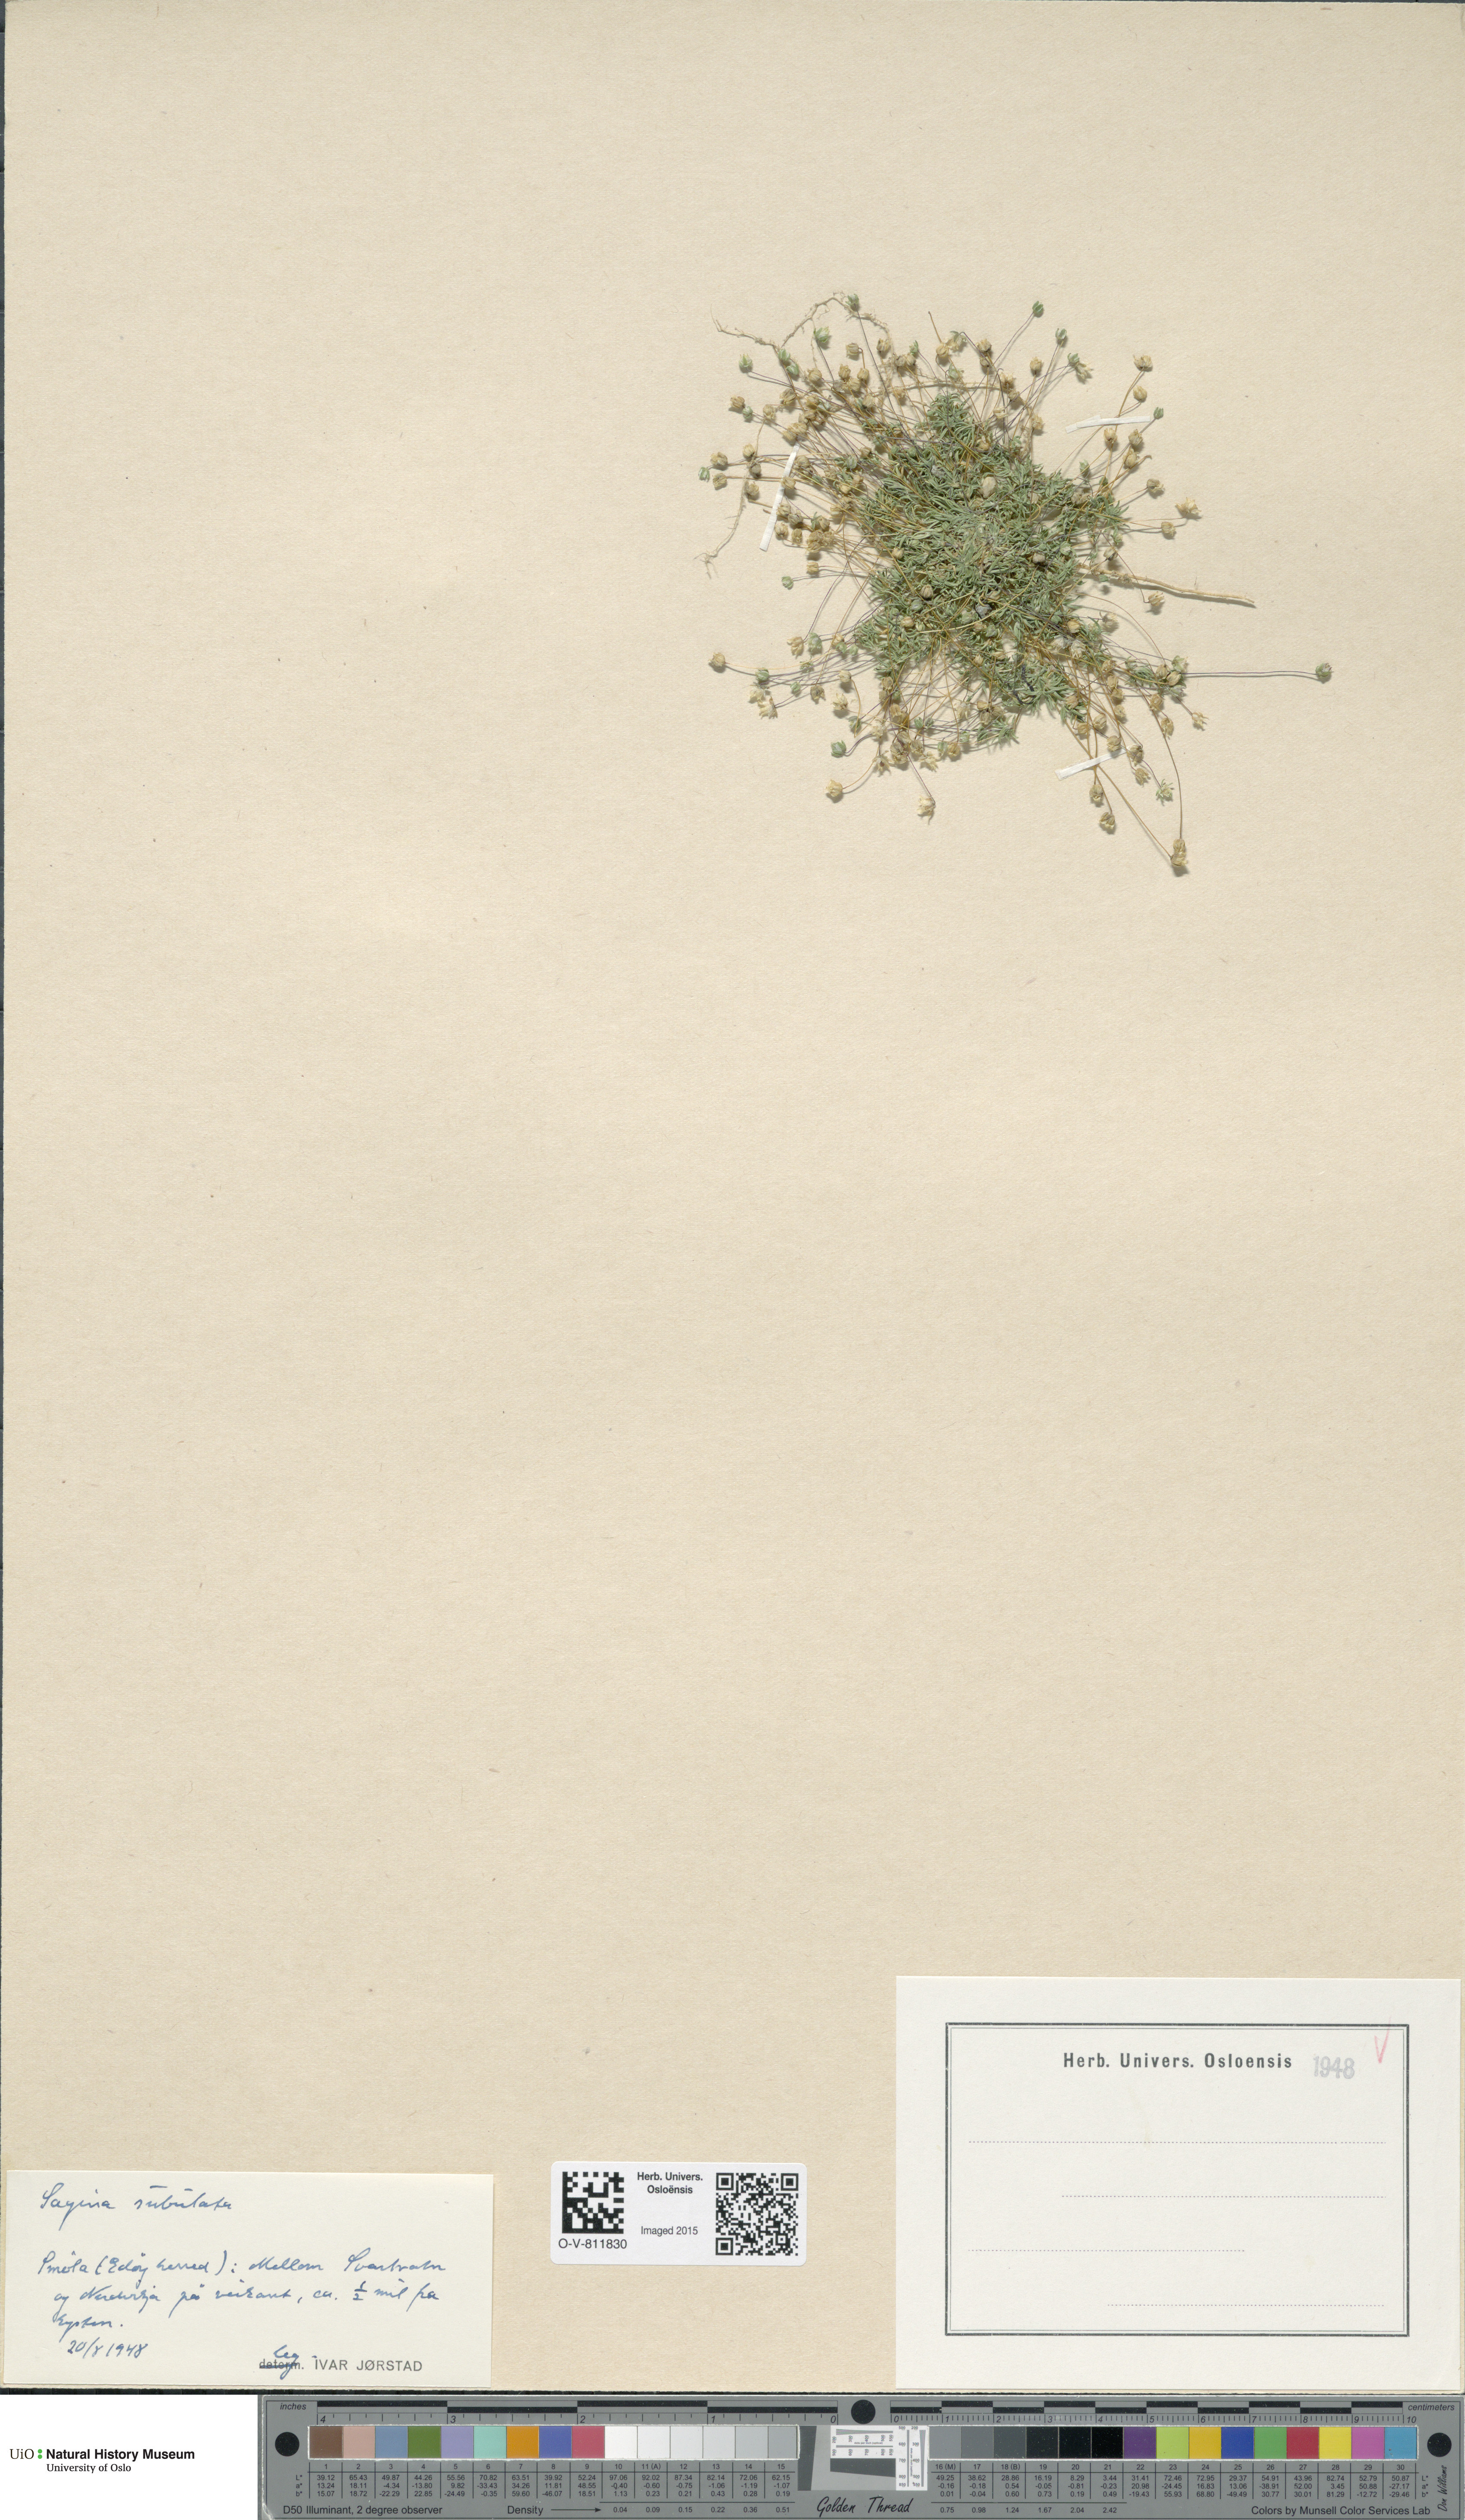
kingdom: Plantae
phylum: Tracheophyta
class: Magnoliopsida
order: Caryophyllales
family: Caryophyllaceae
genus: Sagina
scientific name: Sagina alexandrae
